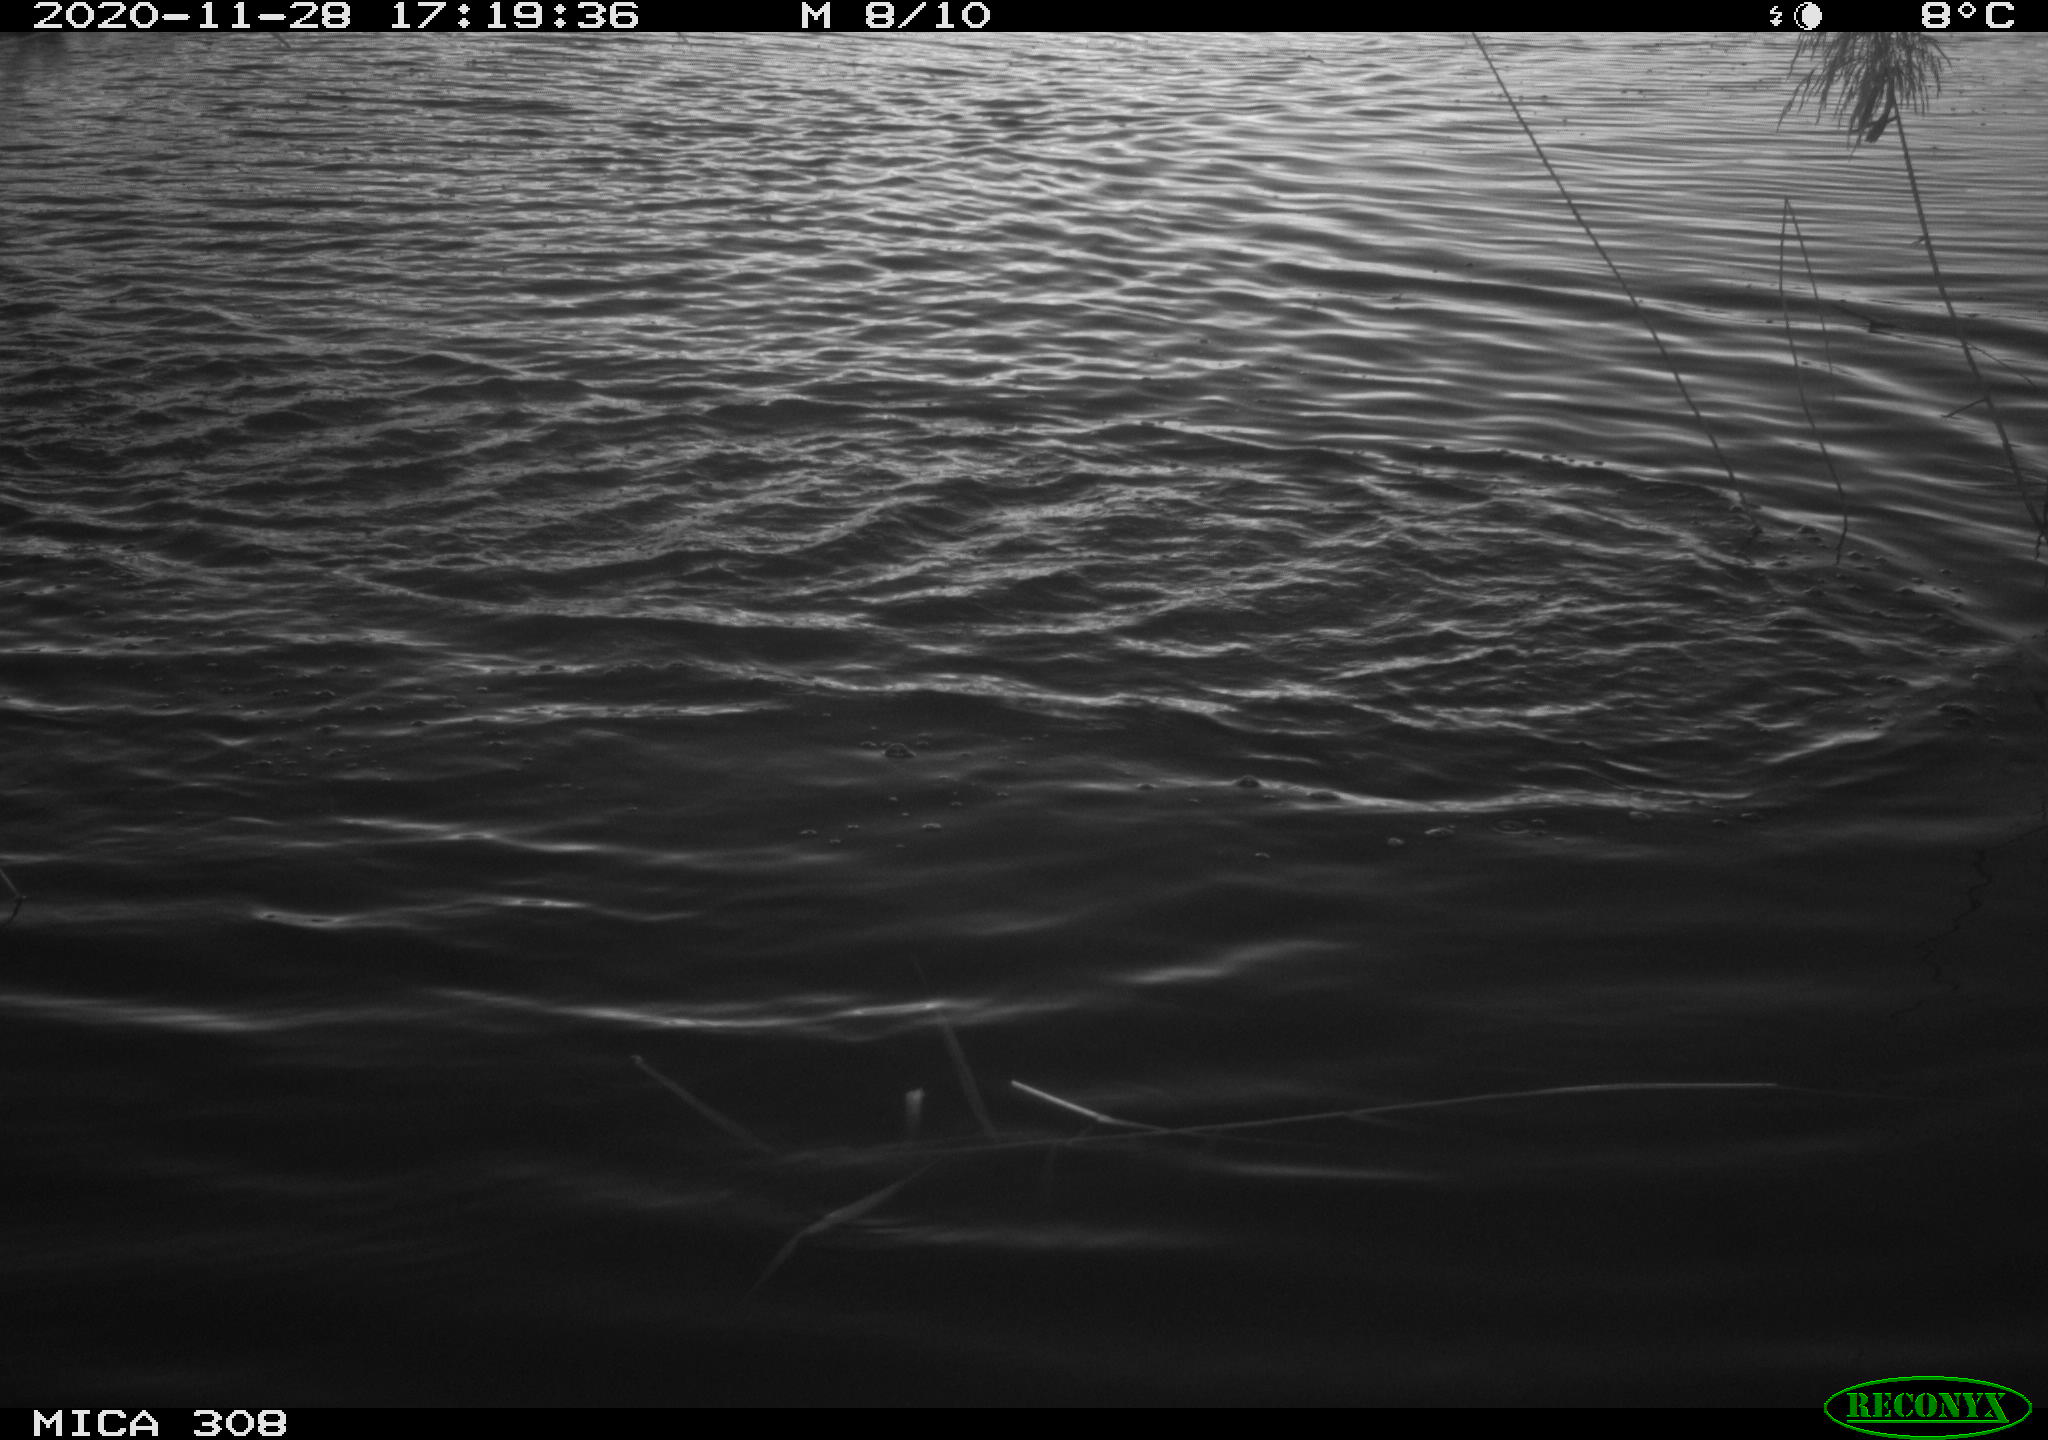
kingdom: Animalia
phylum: Chordata
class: Aves
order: Gruiformes
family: Rallidae
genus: Fulica
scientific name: Fulica atra
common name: Eurasian coot
